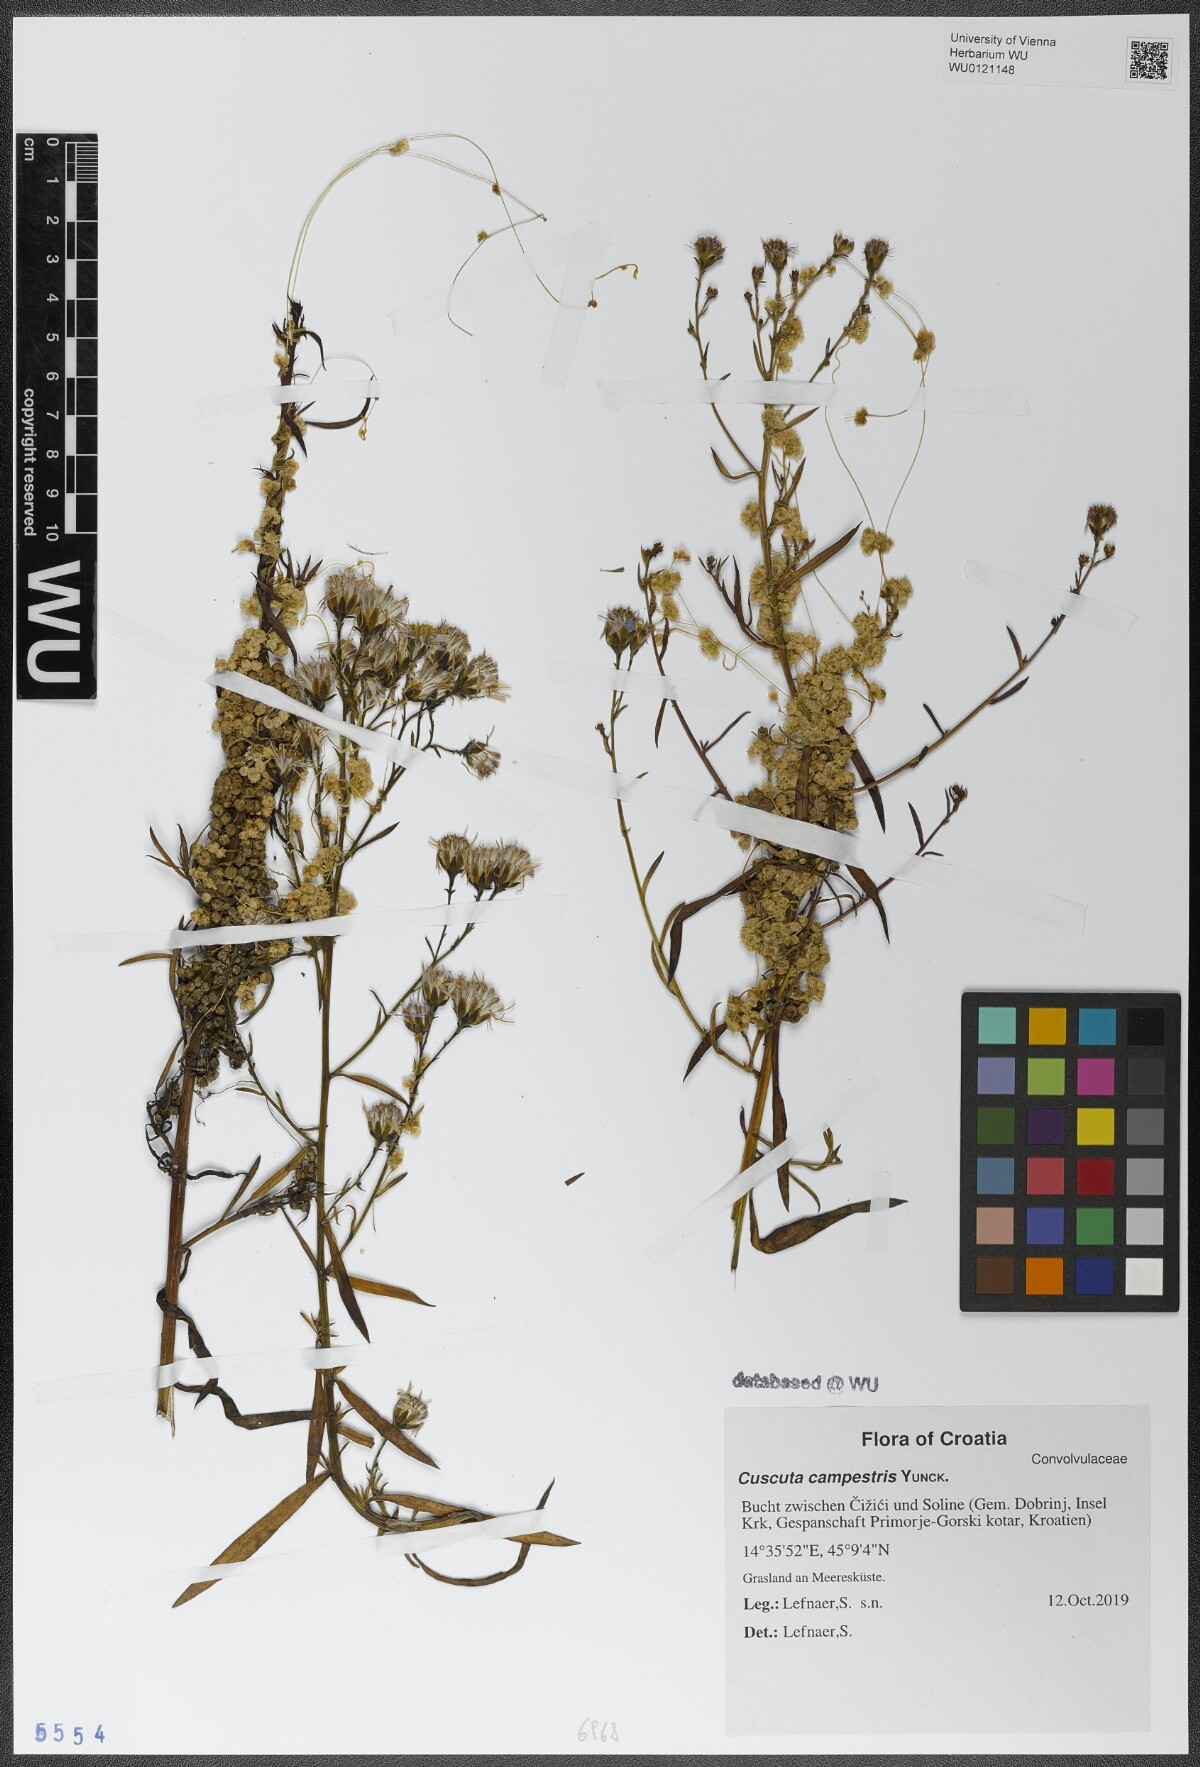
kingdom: Plantae
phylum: Tracheophyta
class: Magnoliopsida
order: Solanales
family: Convolvulaceae
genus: Cuscuta
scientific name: Cuscuta campestris
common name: Yellow dodder
